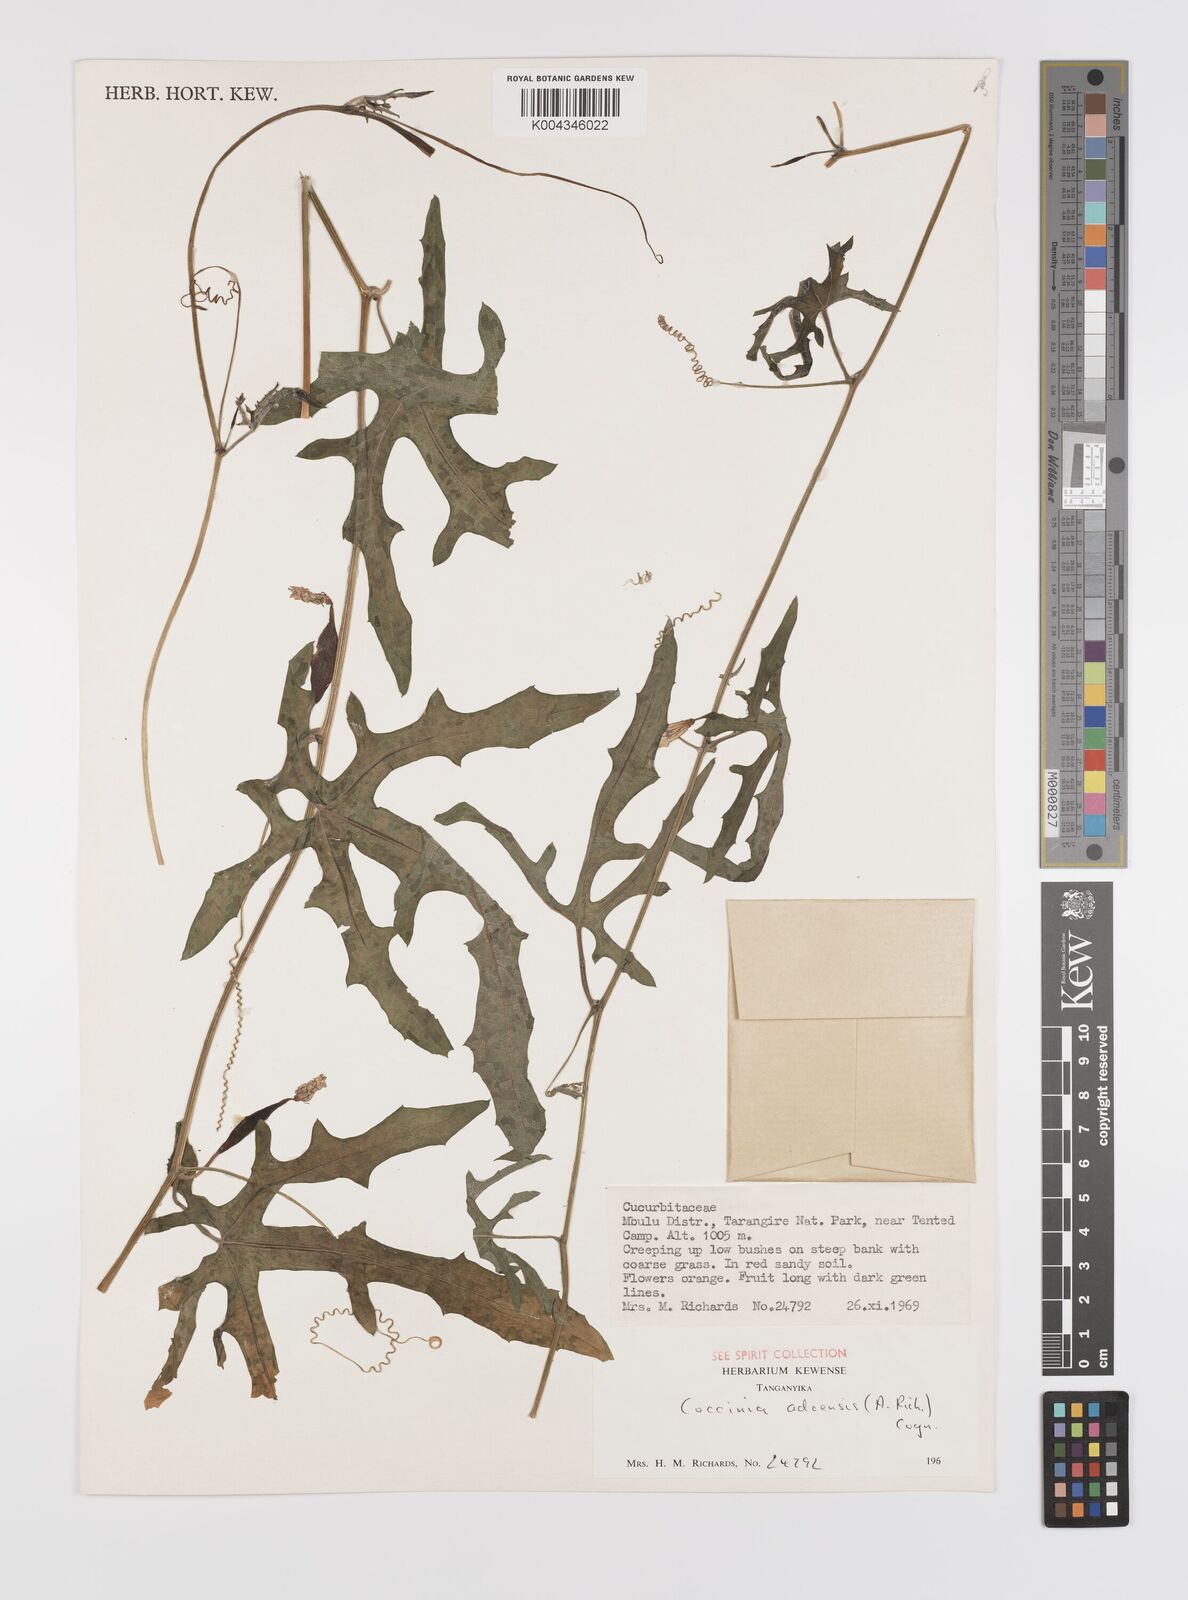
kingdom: Plantae
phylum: Tracheophyta
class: Magnoliopsida
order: Cucurbitales
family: Cucurbitaceae
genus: Coccinia
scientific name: Coccinia adoensis
